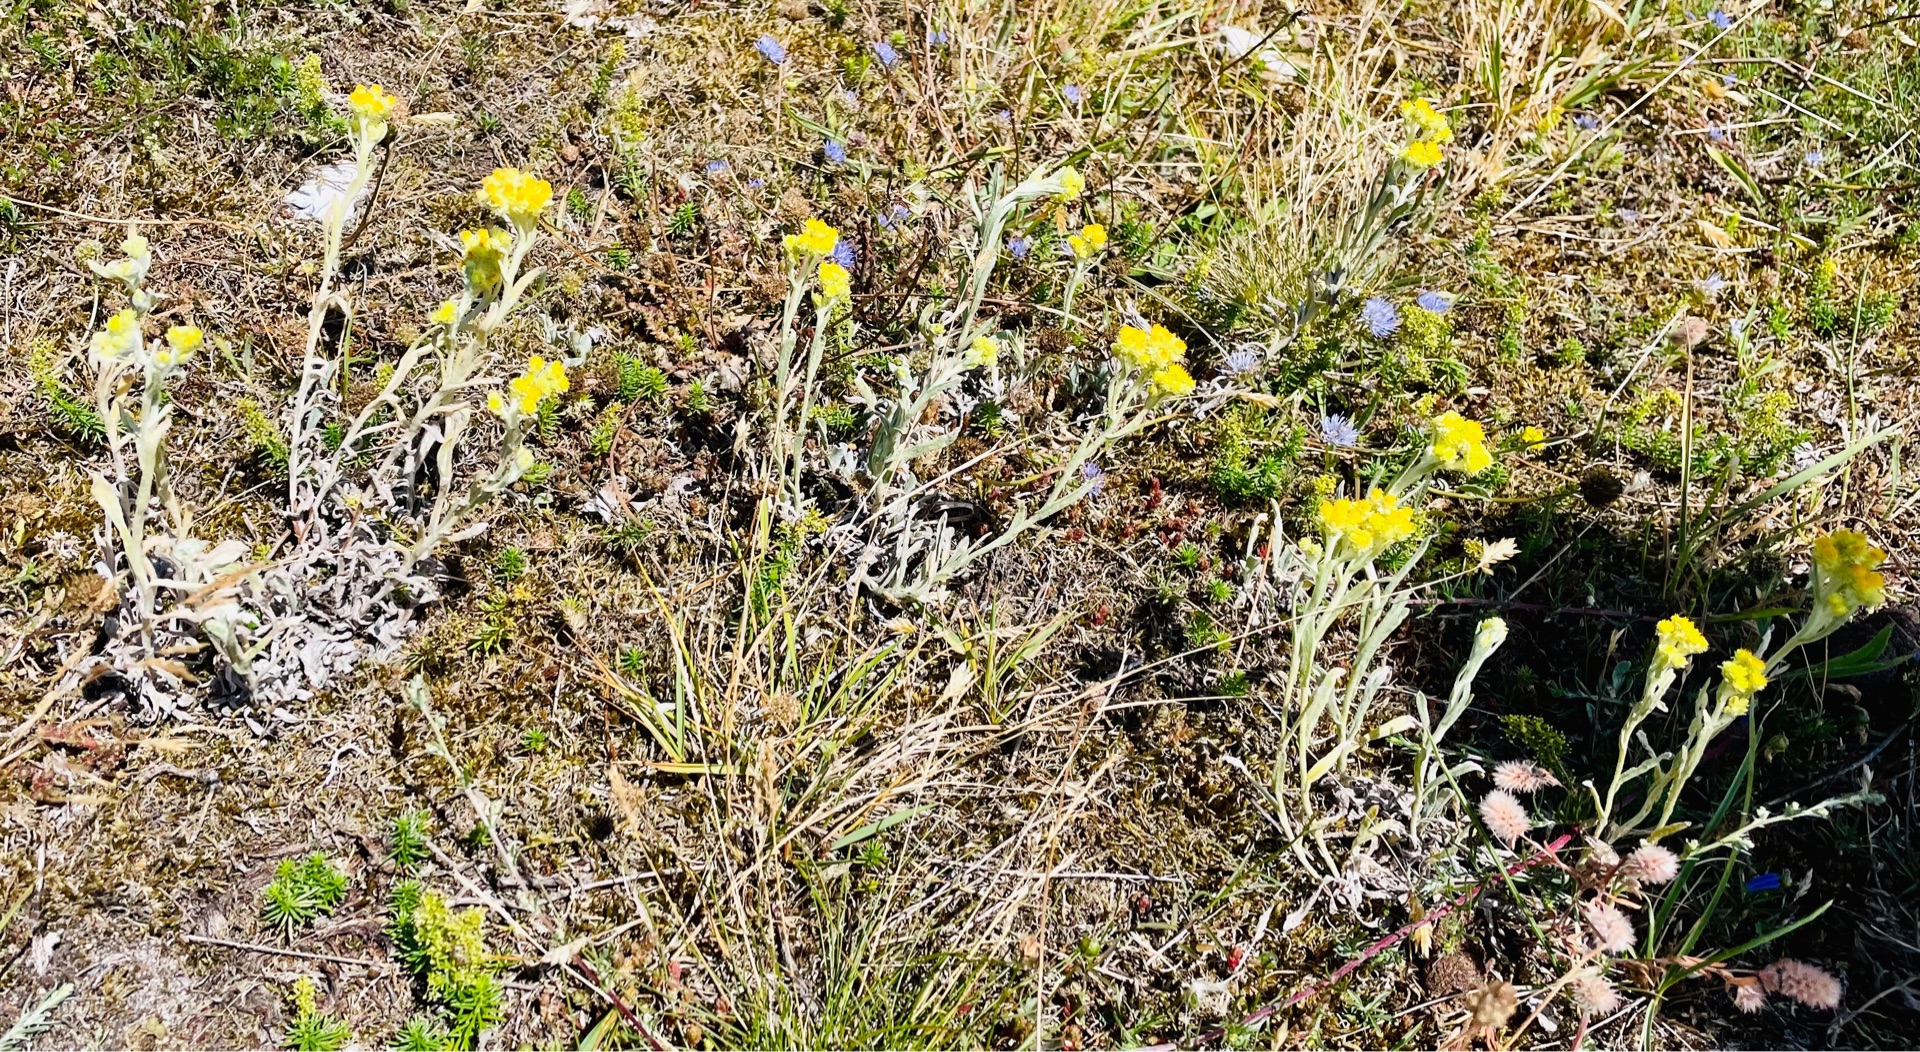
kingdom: Plantae
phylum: Tracheophyta
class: Magnoliopsida
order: Asterales
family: Asteraceae
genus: Helichrysum
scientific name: Helichrysum arenarium
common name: Gul evighedsblomst
